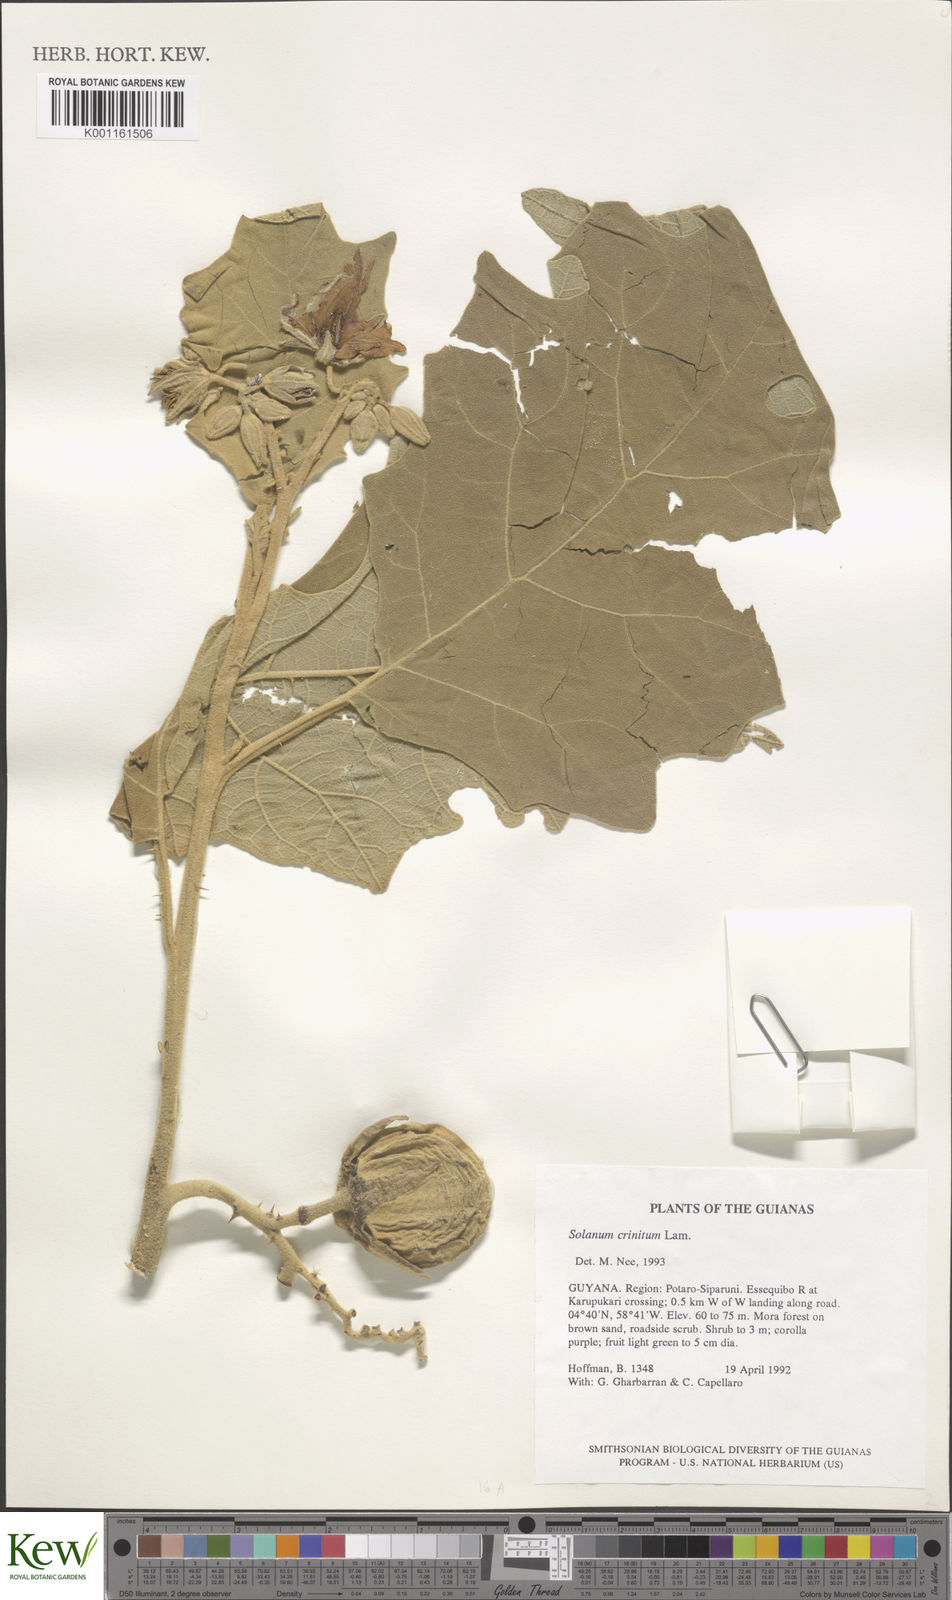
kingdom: Plantae
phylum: Tracheophyta
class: Magnoliopsida
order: Solanales
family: Solanaceae
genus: Solanum
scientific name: Solanum crinitum
